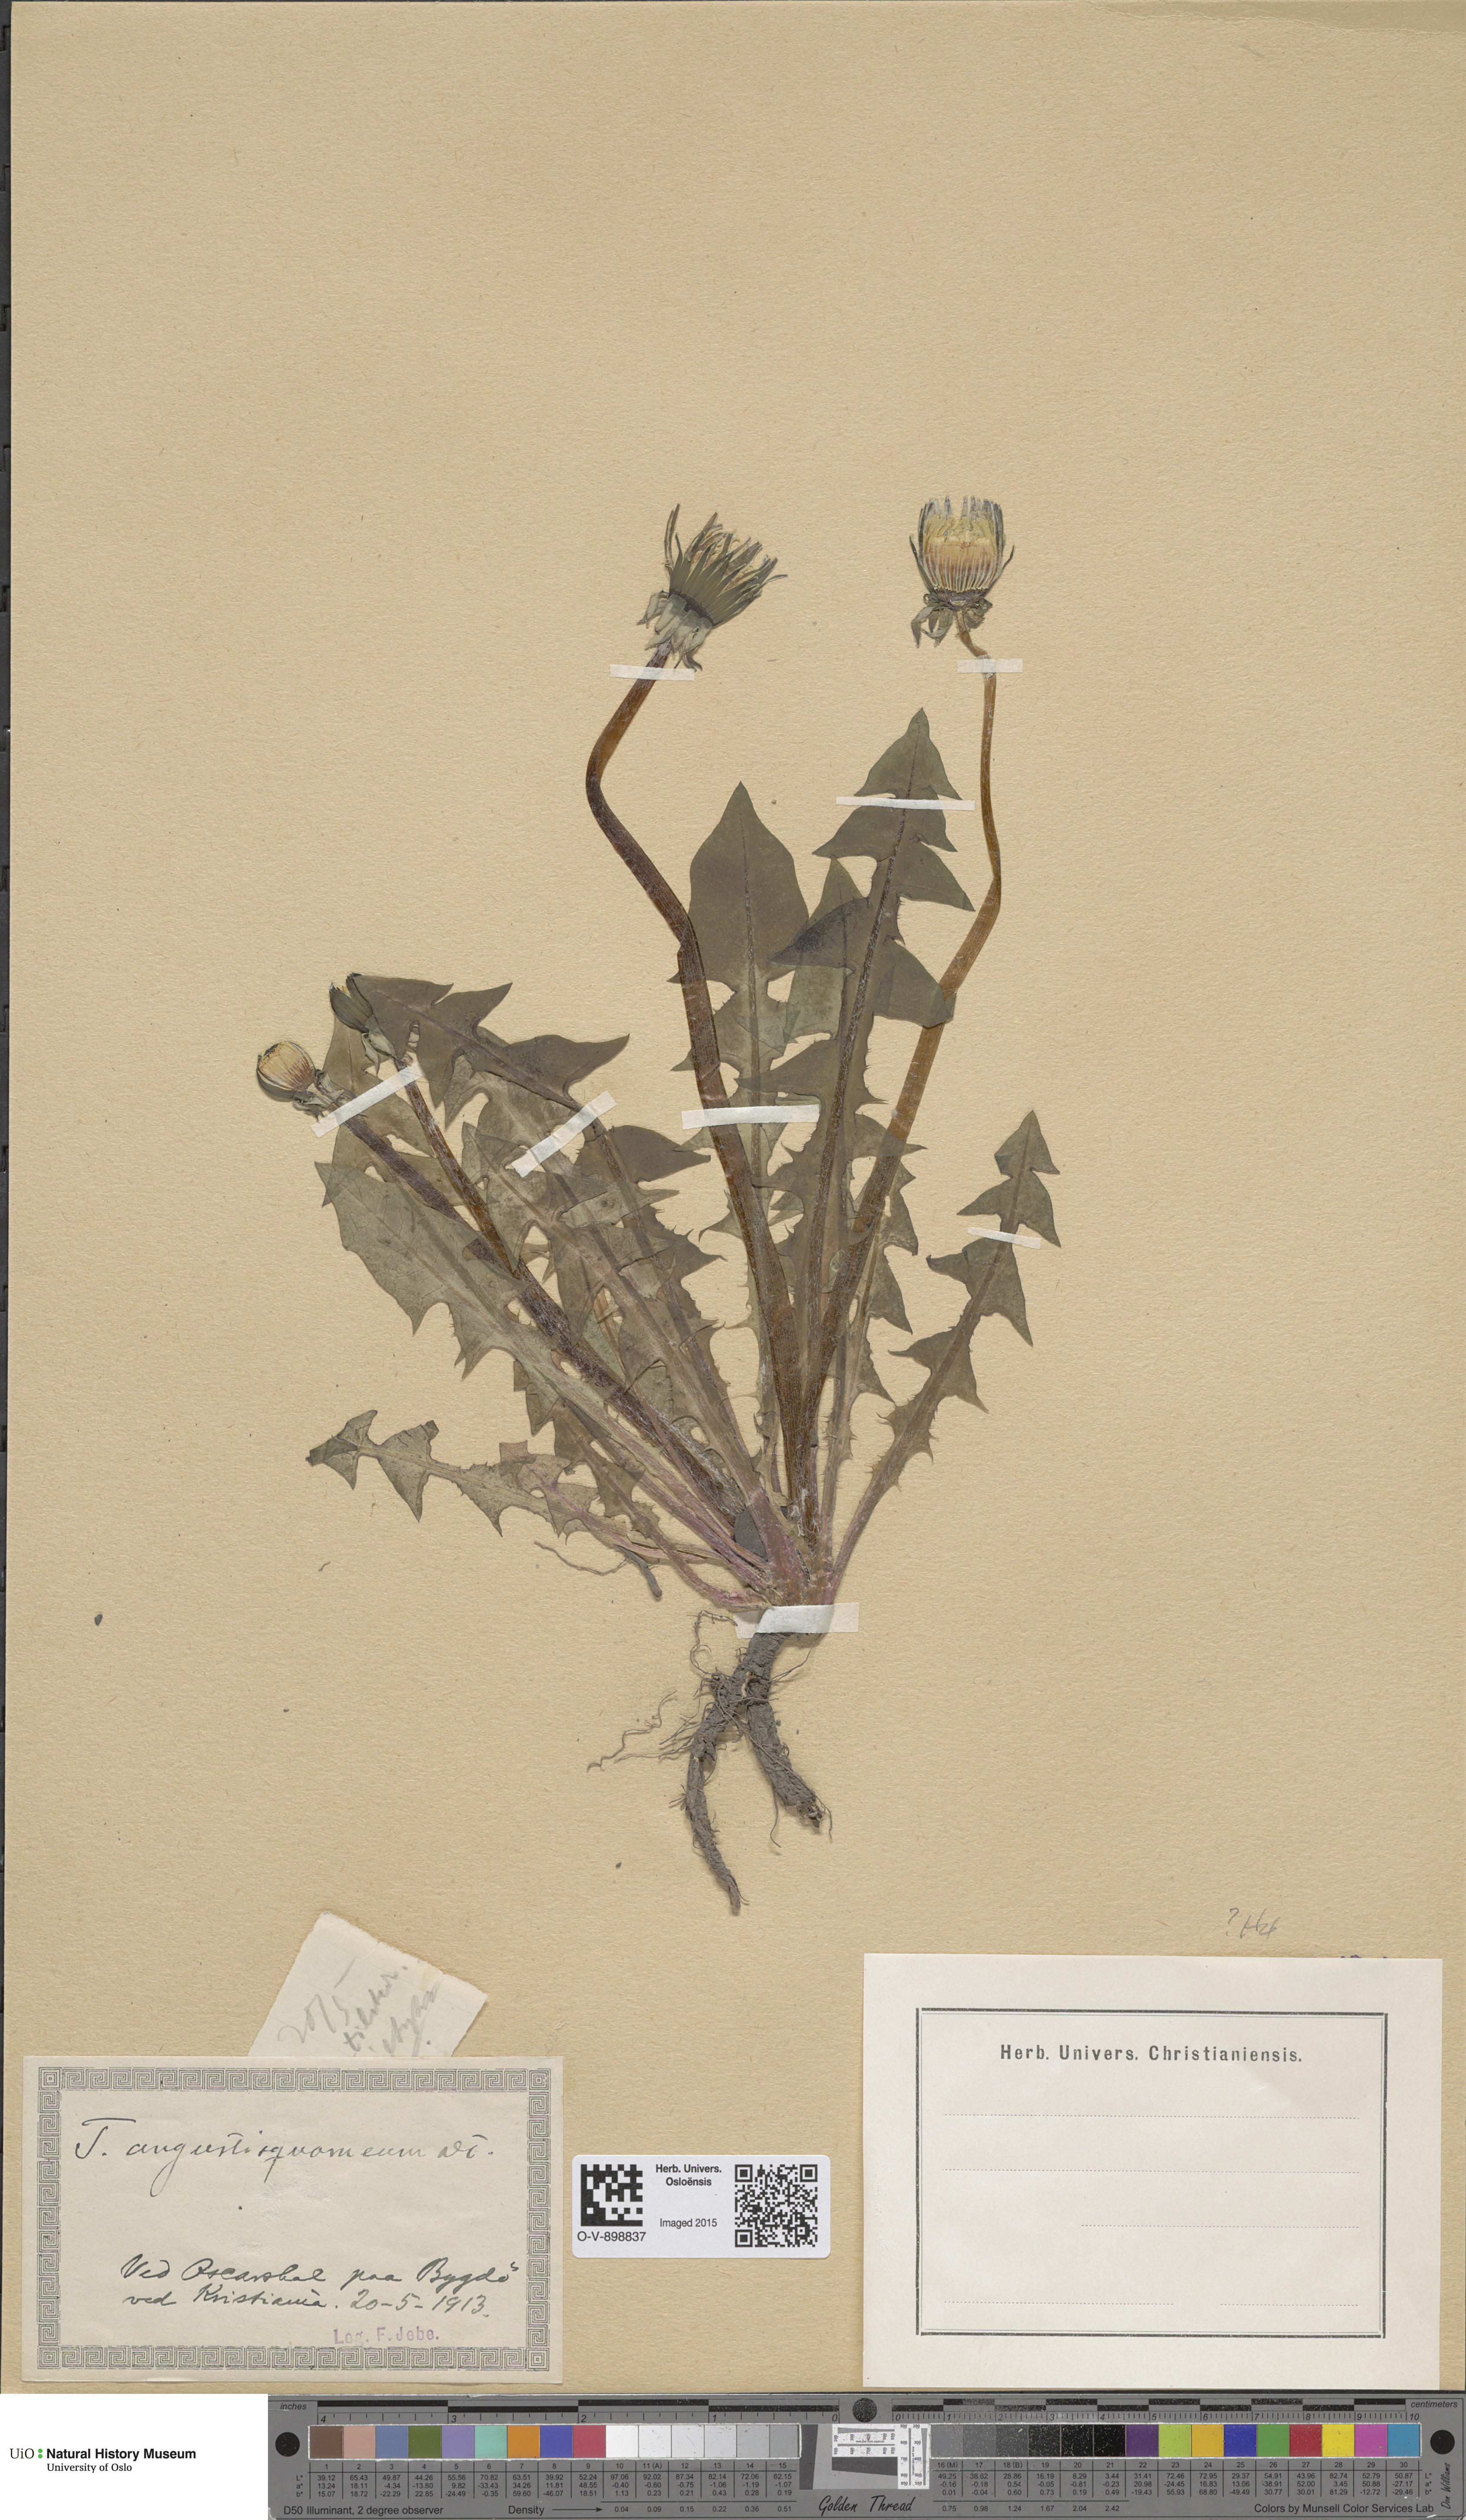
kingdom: Plantae
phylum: Tracheophyta
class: Magnoliopsida
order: Asterales
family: Asteraceae
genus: Taraxacum
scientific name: Taraxacum angustisquameum
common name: Multilobed dandelion
